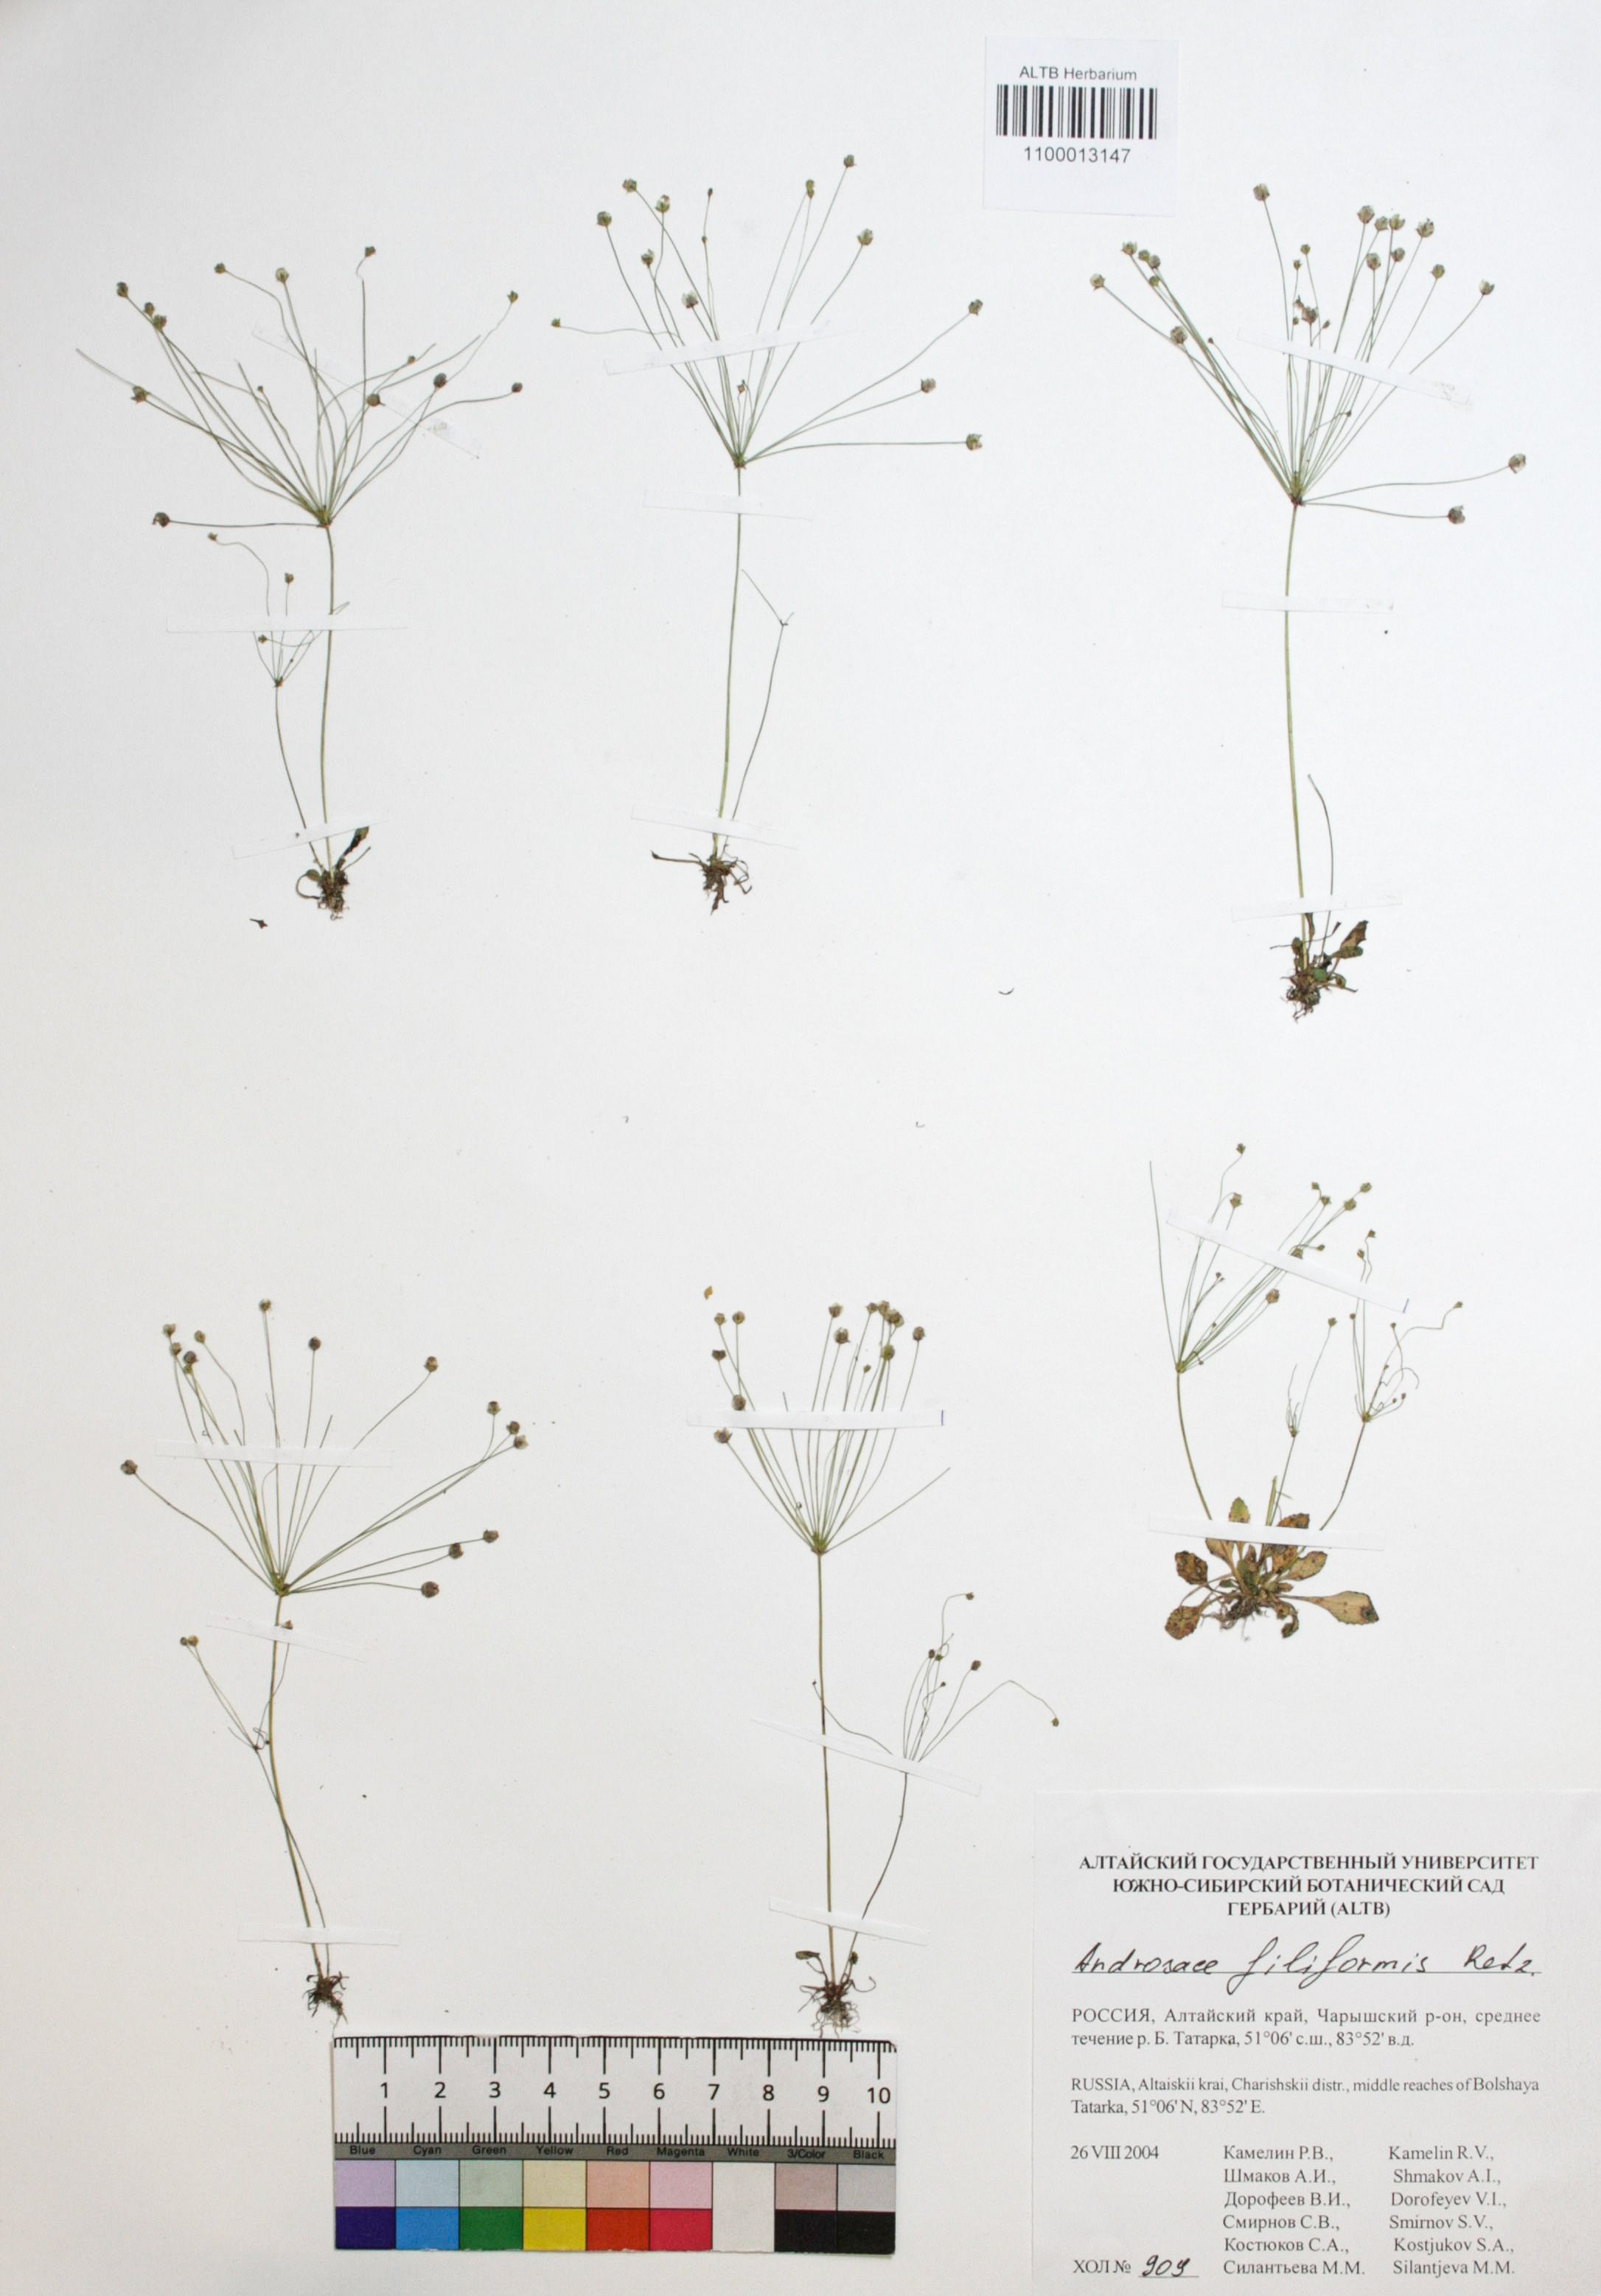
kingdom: Plantae
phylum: Tracheophyta
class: Magnoliopsida
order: Ericales
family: Primulaceae
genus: Androsace
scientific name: Androsace filiformis
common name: Filiform rock jasmine
